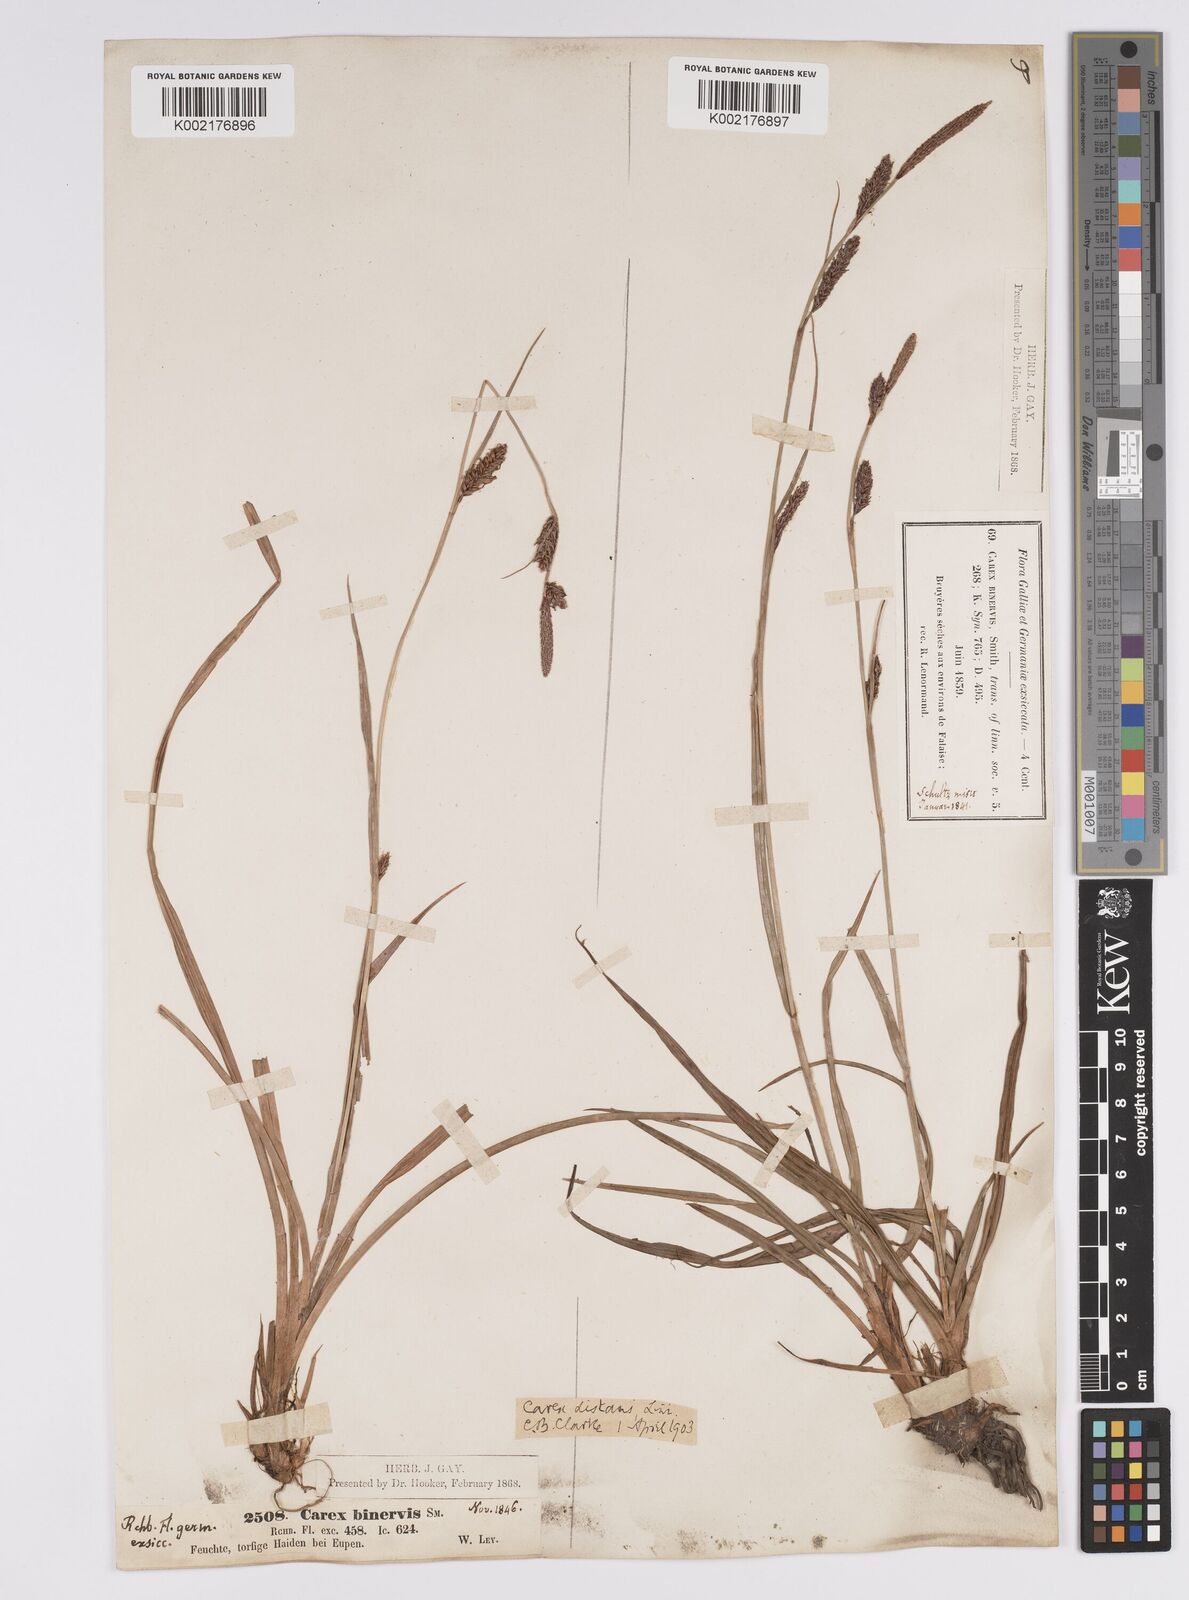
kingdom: Plantae
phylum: Tracheophyta
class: Liliopsida
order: Poales
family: Cyperaceae
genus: Carex
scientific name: Carex binervis
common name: Green-ribbed sedge
